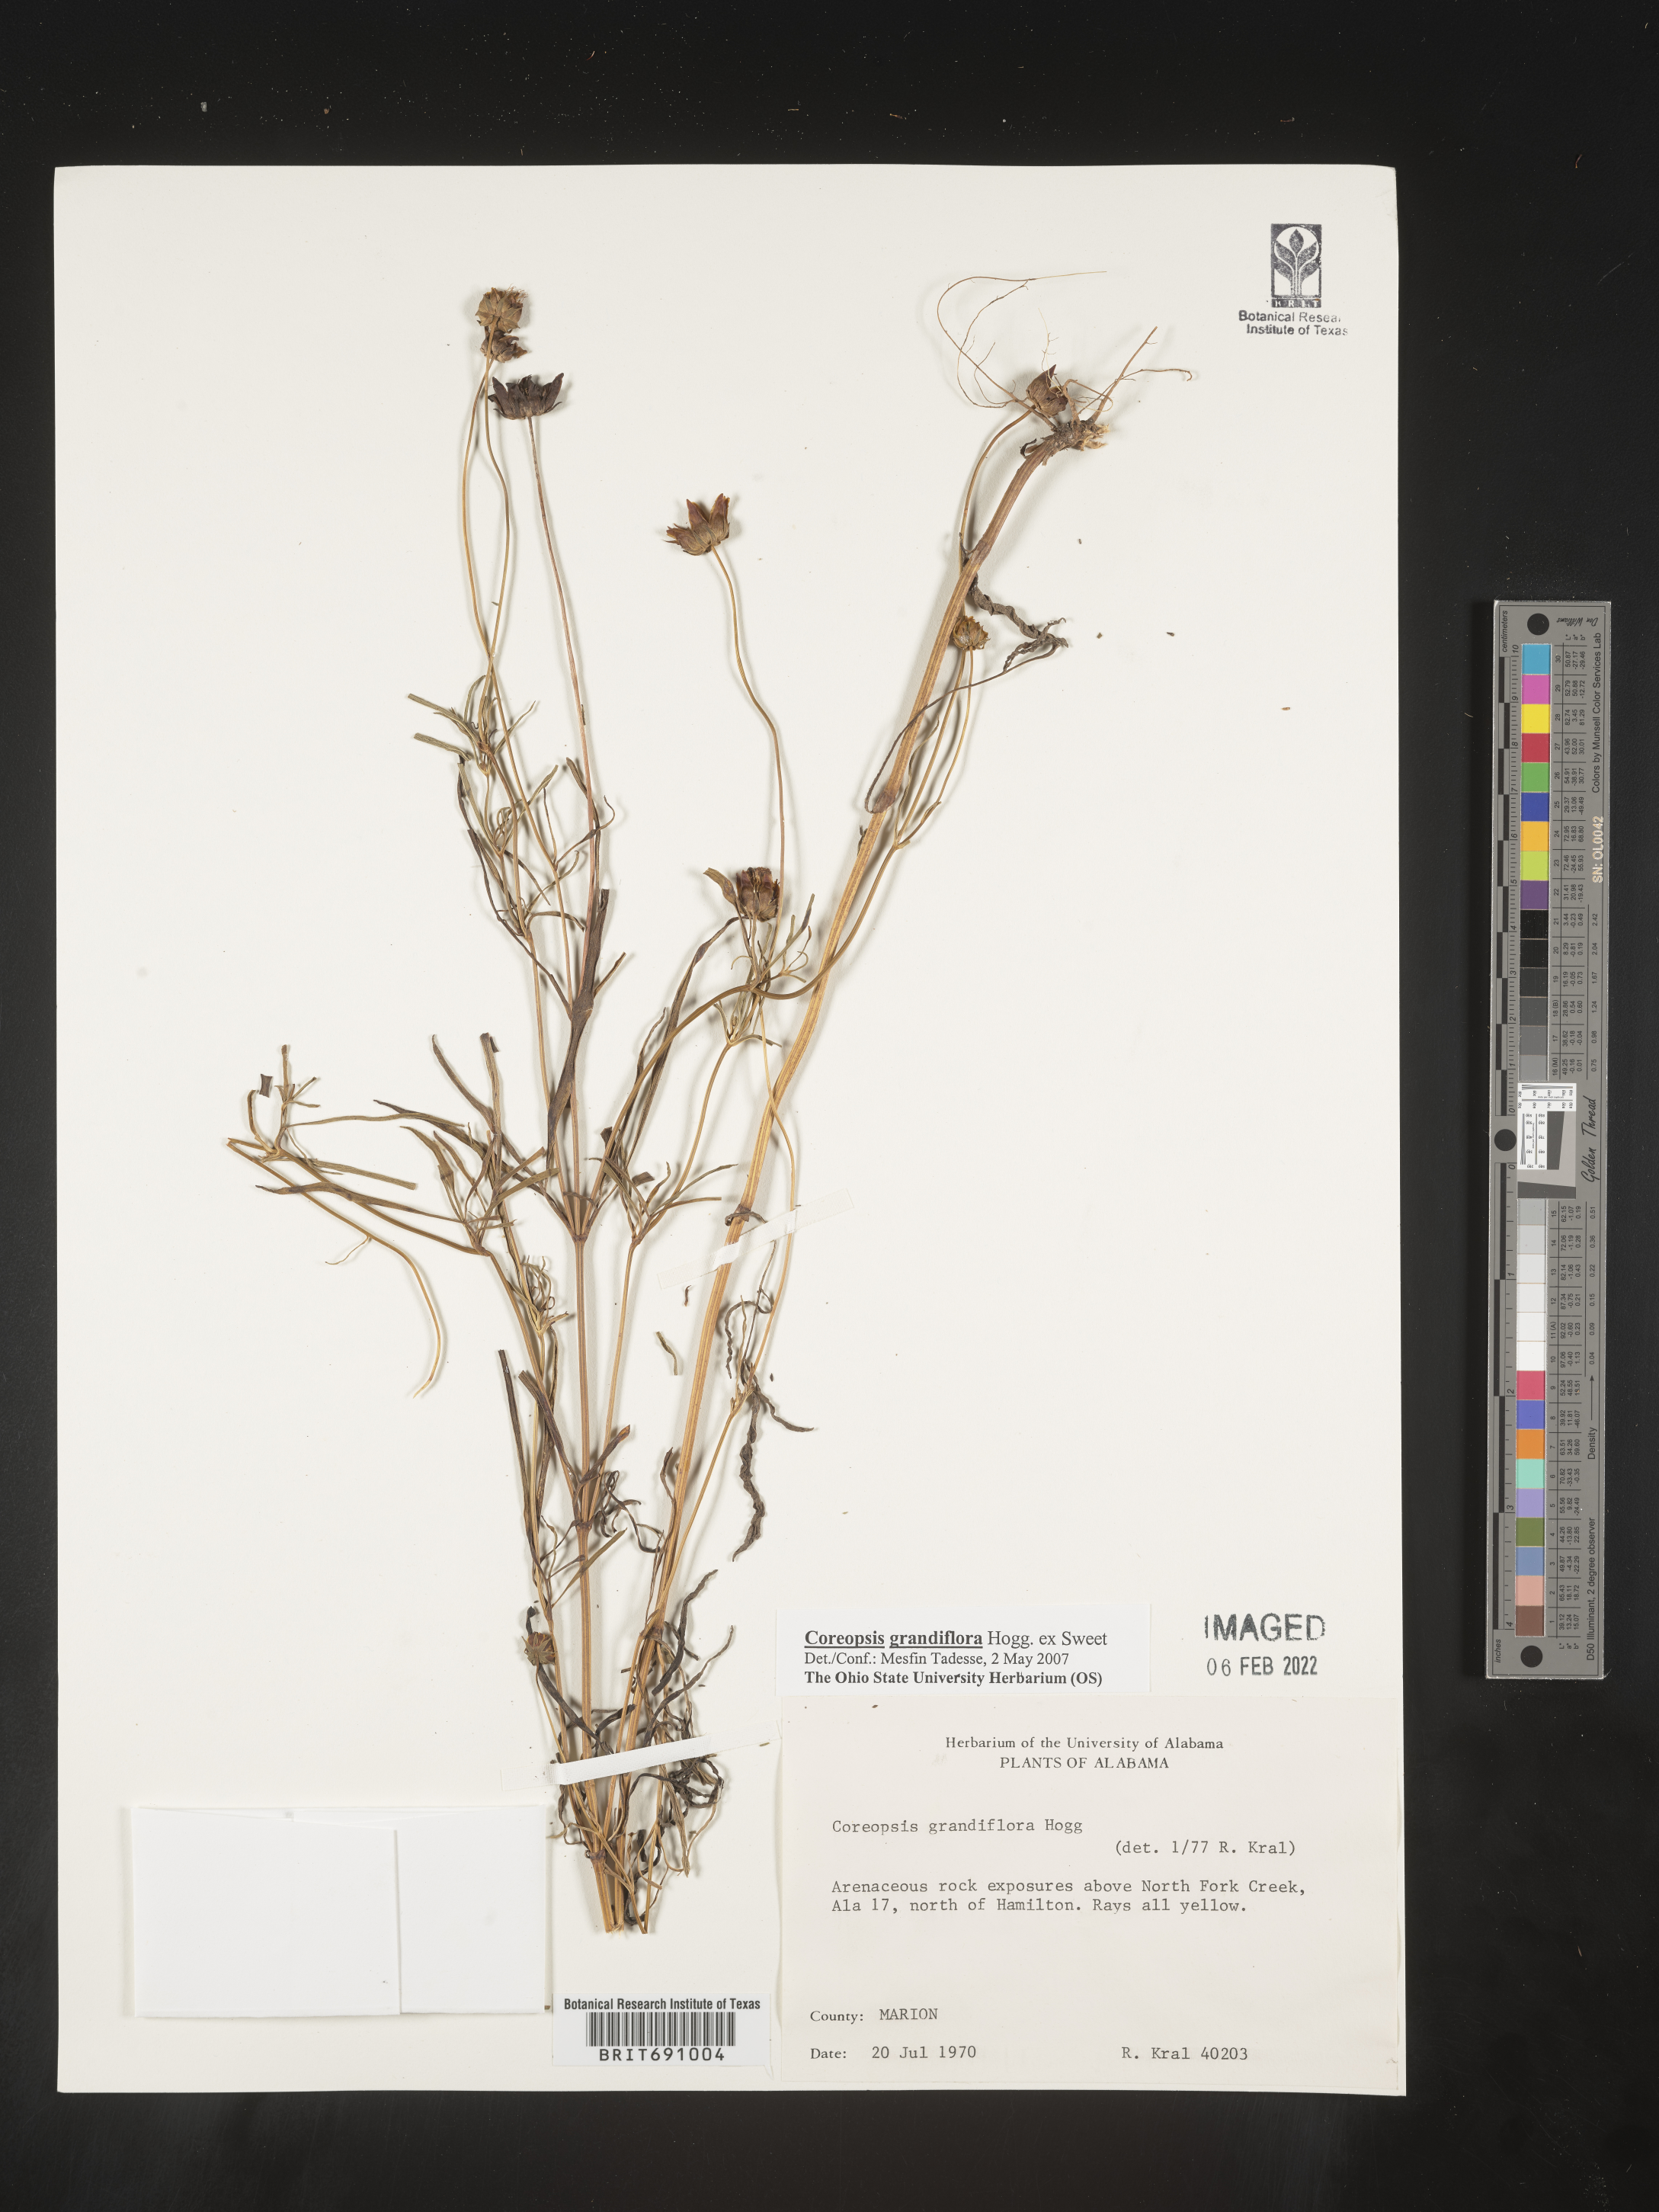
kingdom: Plantae
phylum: Tracheophyta
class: Magnoliopsida
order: Asterales
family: Asteraceae
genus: Coreopsis
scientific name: Coreopsis grandiflora
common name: Large-flowered tickseed
